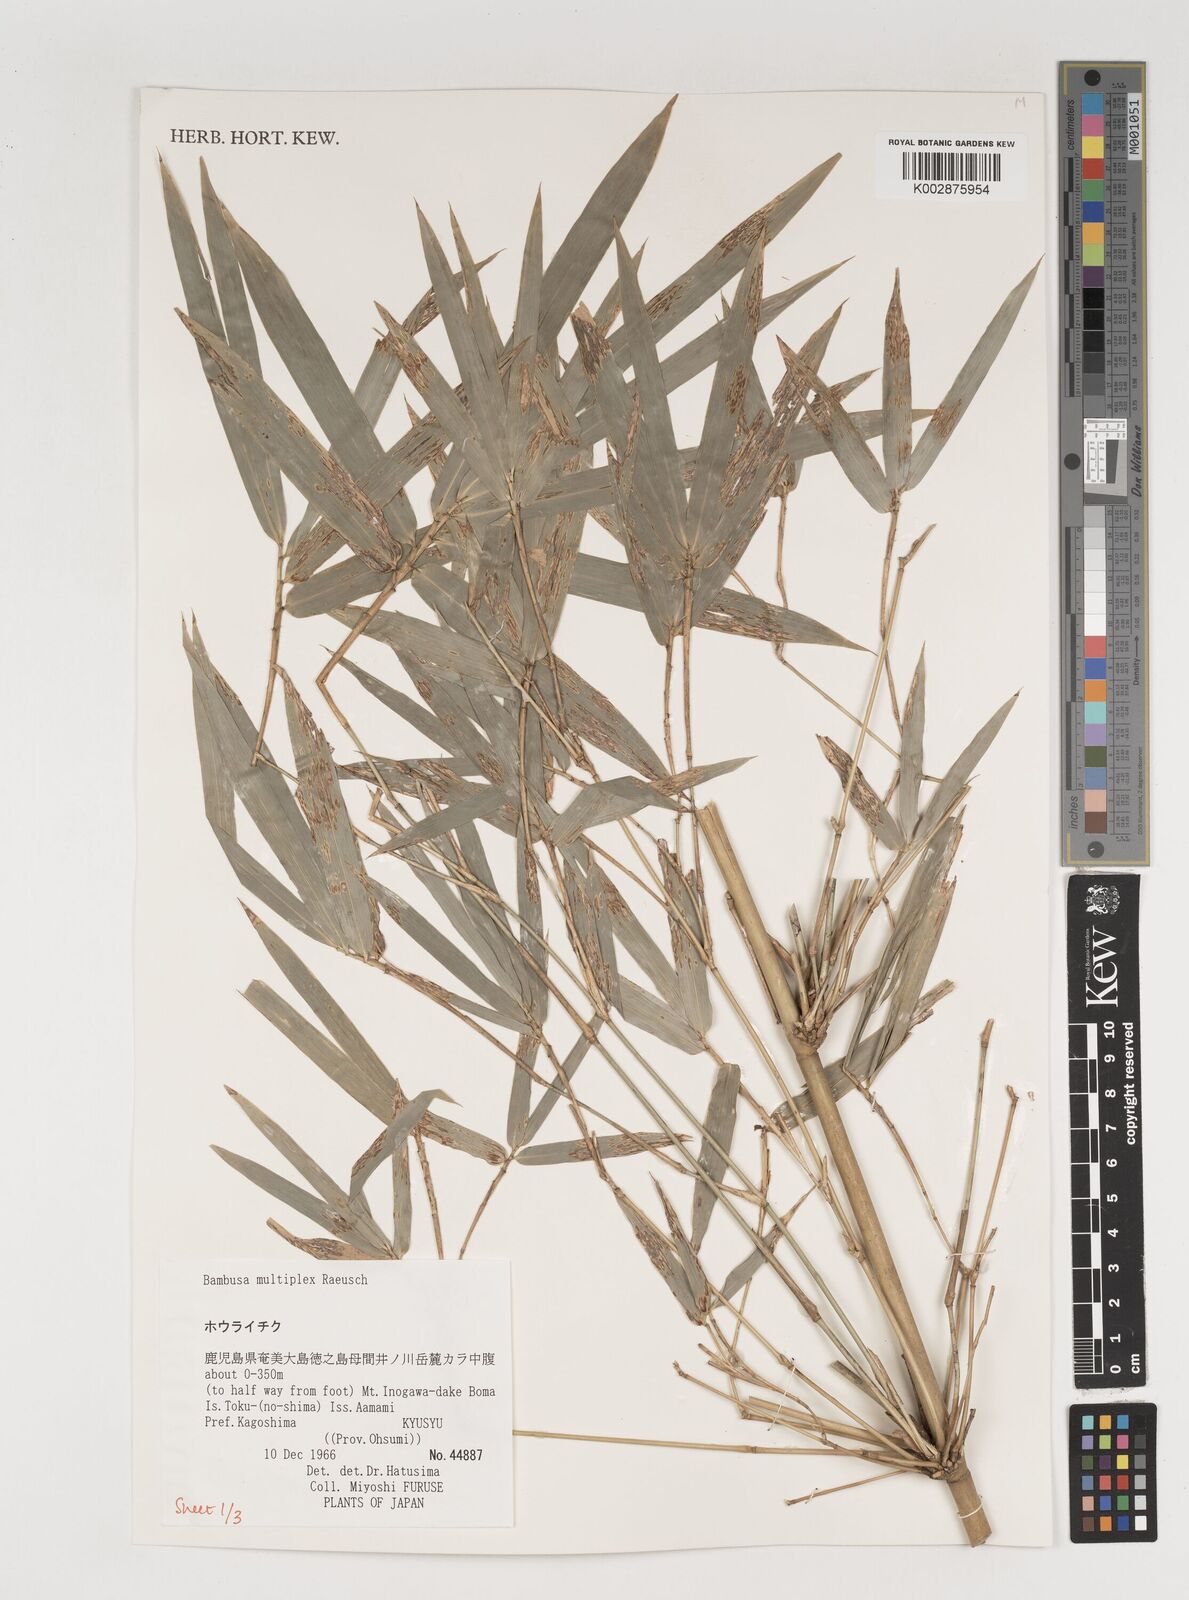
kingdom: Plantae
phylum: Tracheophyta
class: Liliopsida
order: Poales
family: Poaceae
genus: Bambusa
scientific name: Bambusa multiplex
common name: Hedge bamboo
